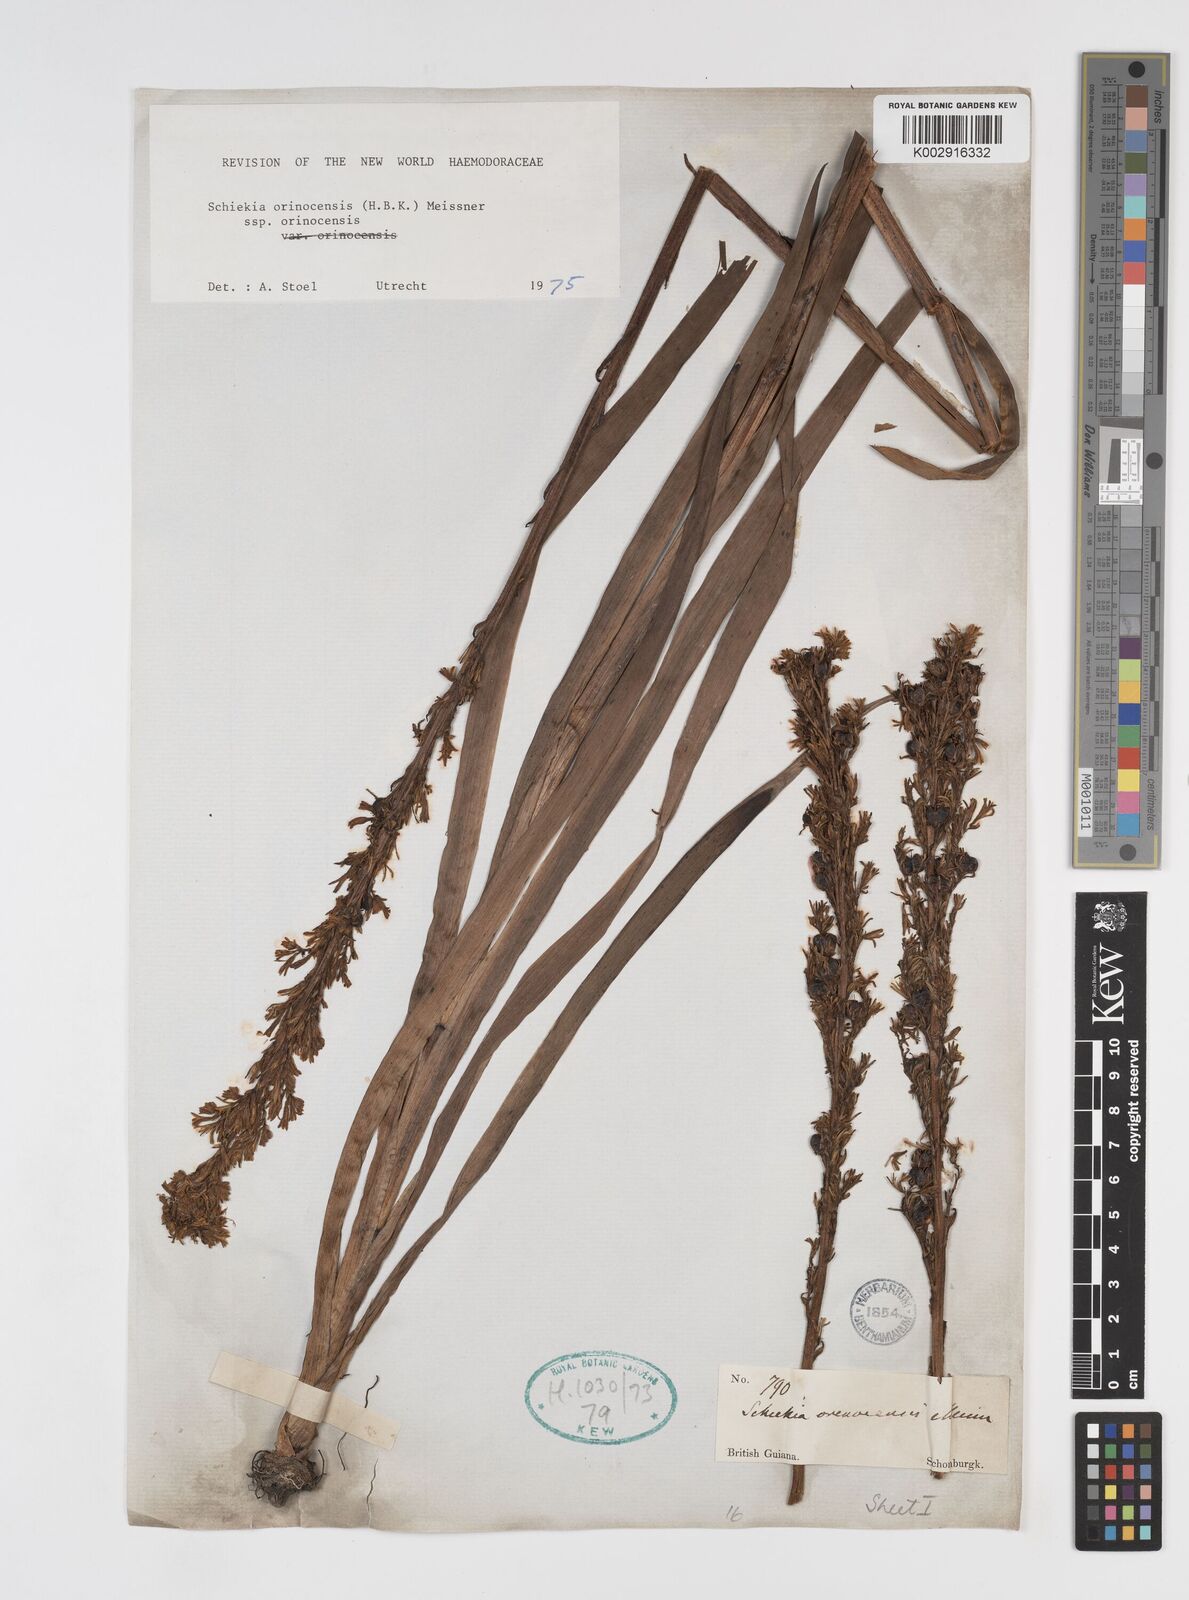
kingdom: Plantae
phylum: Tracheophyta
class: Liliopsida
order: Commelinales
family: Haemodoraceae
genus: Schiekia
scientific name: Schiekia orinocensis
